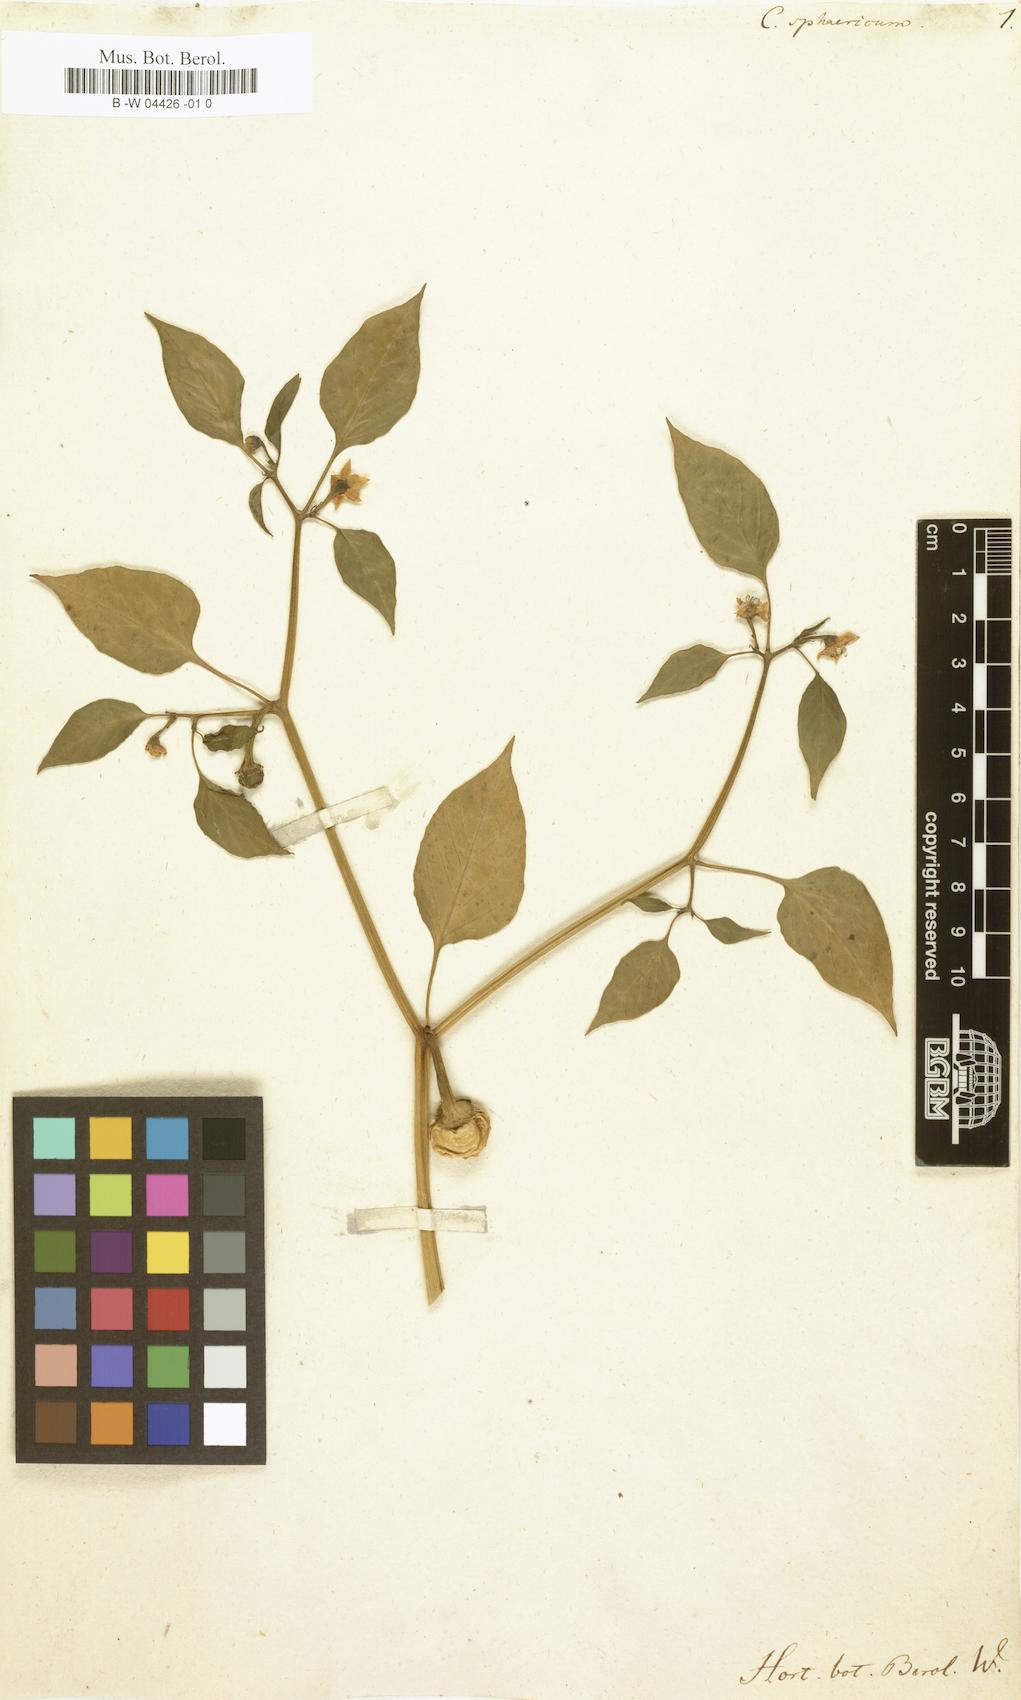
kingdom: Plantae
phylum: Tracheophyta
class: Magnoliopsida
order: Solanales
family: Solanaceae
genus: Capsicum
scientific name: Capsicum annuum
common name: Sweet pepper
